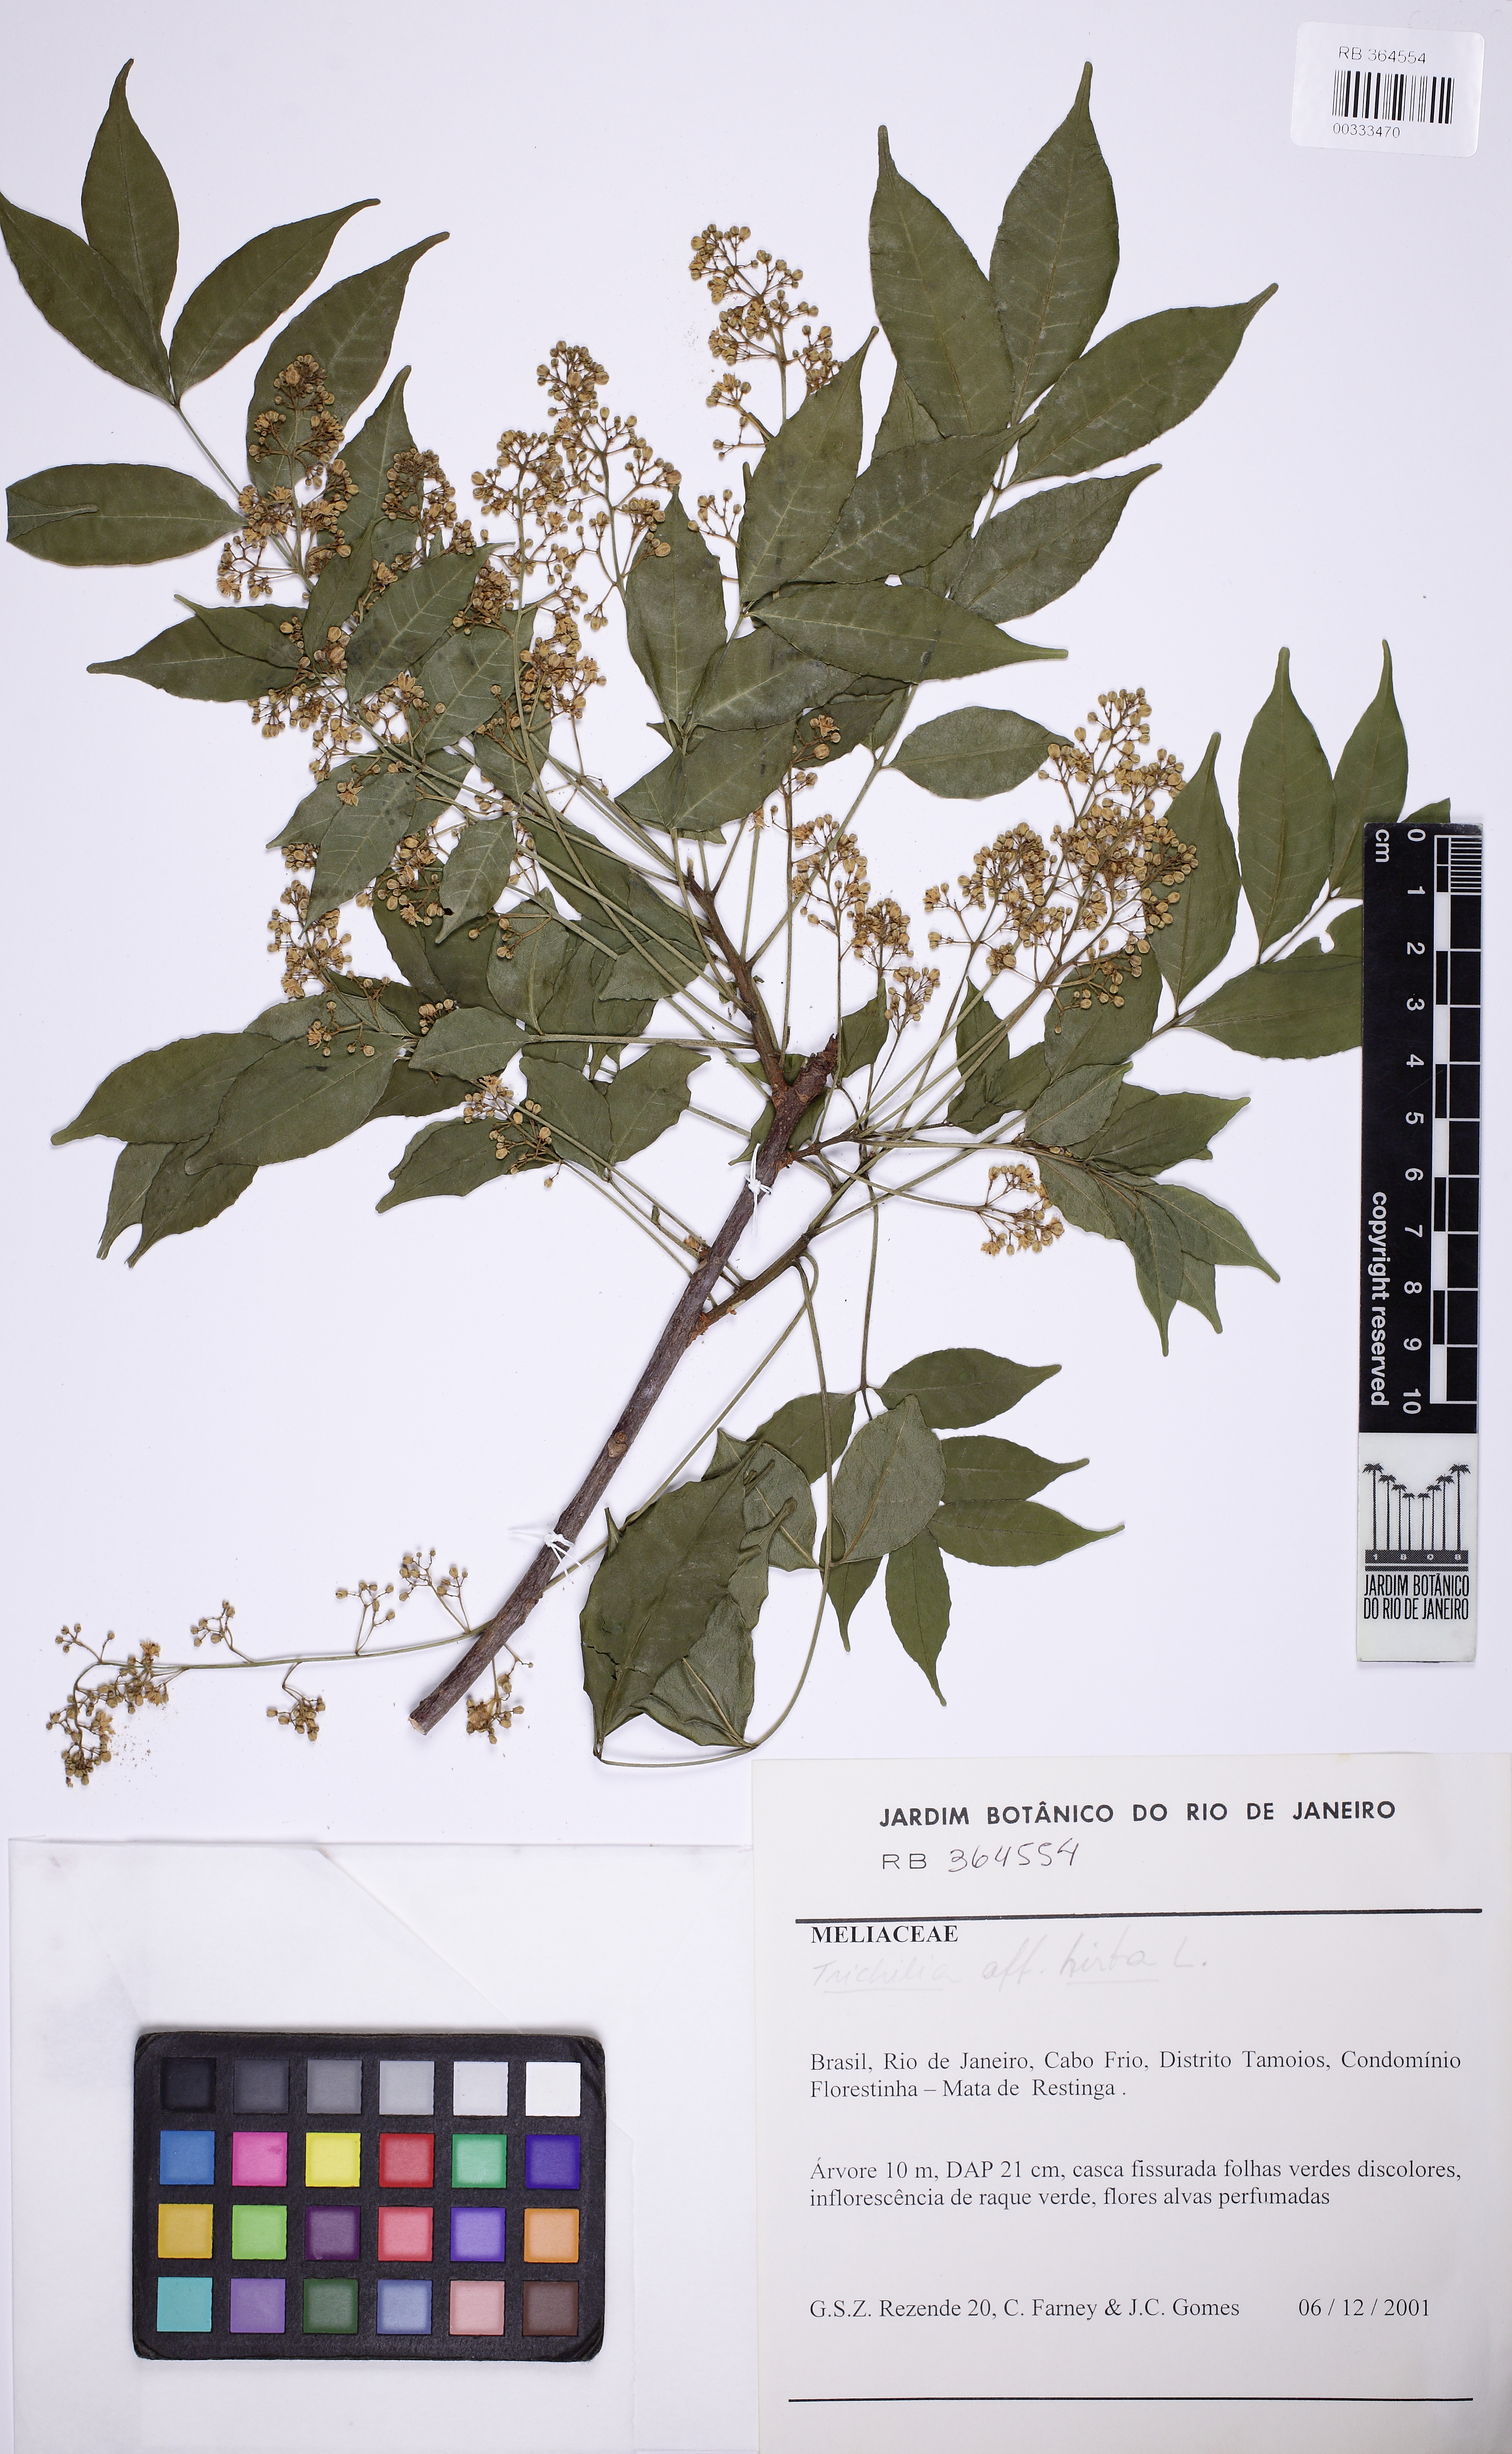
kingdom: Plantae
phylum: Tracheophyta
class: Magnoliopsida
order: Sapindales
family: Meliaceae
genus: Trichilia
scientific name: Trichilia hirta
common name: Red-cedar
